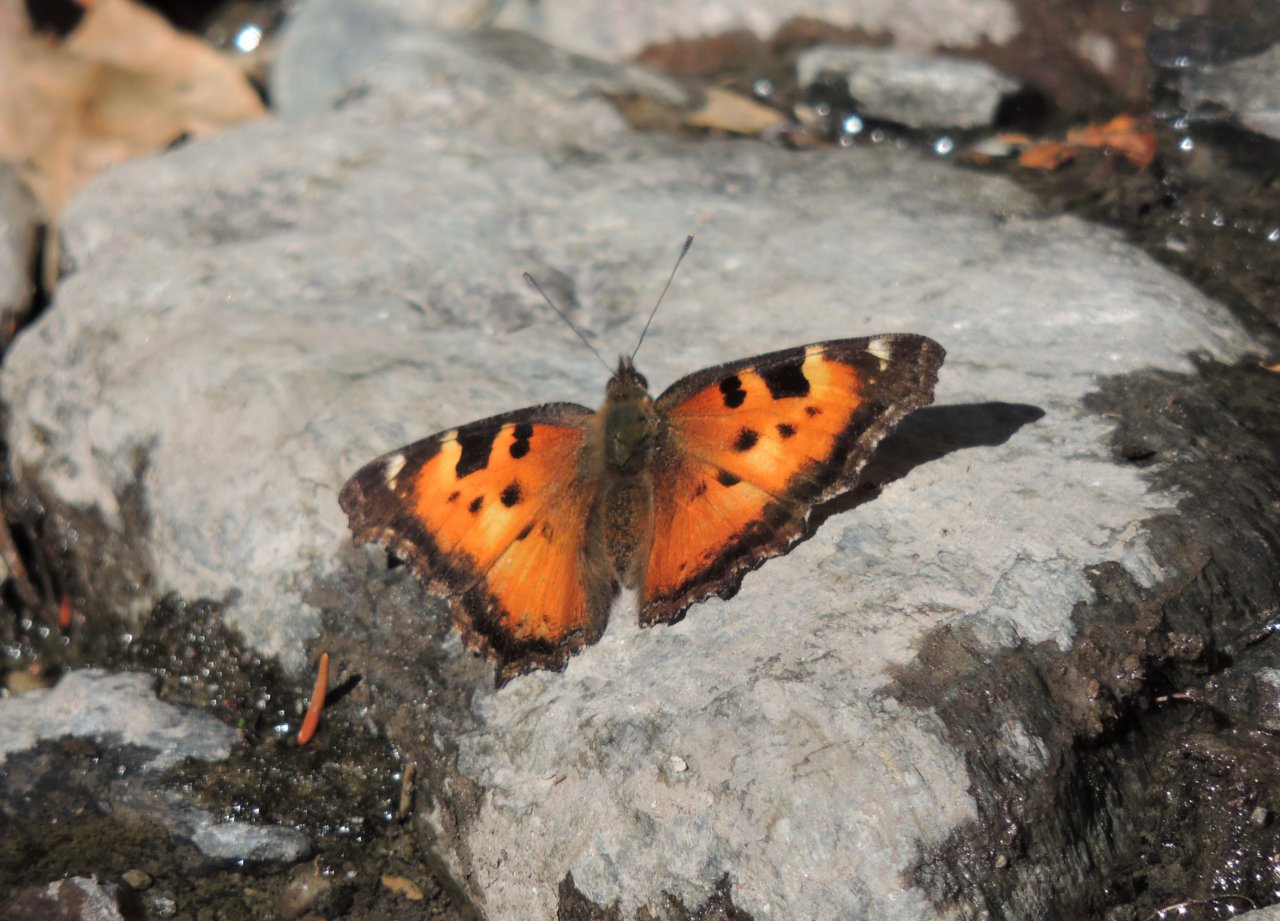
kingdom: Animalia
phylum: Arthropoda
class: Insecta
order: Lepidoptera
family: Nymphalidae
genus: Nymphalis
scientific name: Nymphalis californica
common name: California Tortoiseshell
